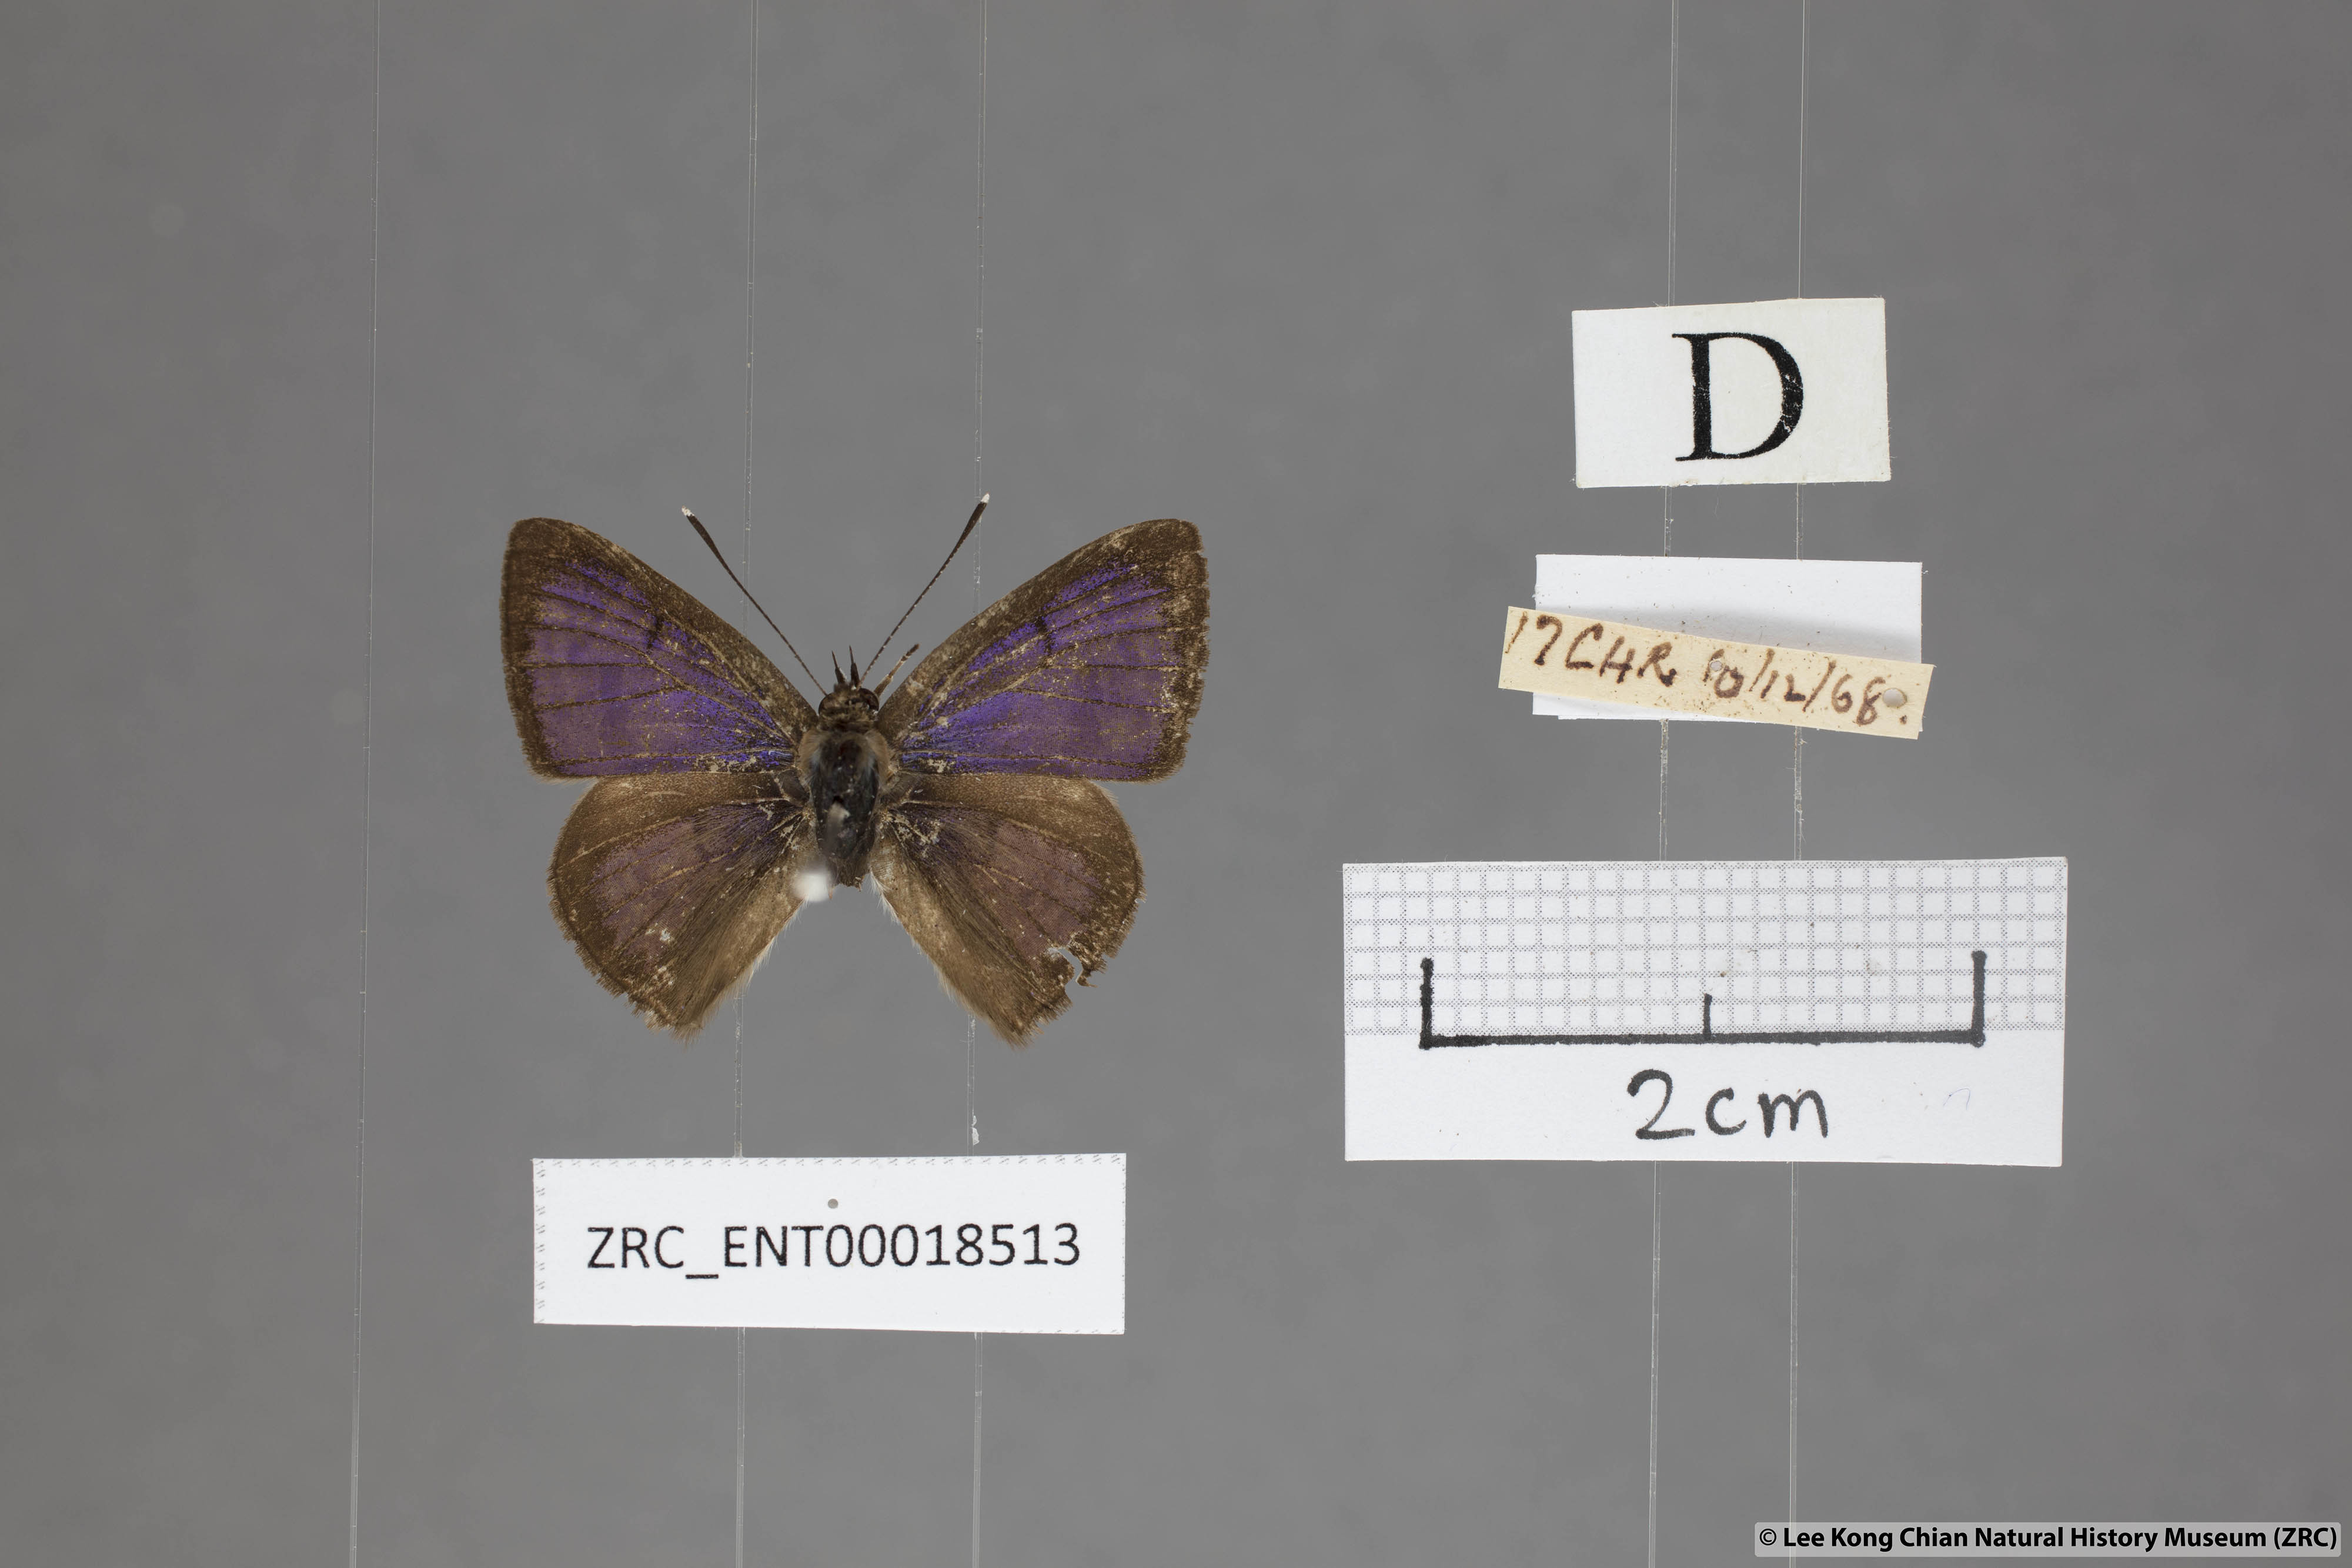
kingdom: Animalia
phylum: Arthropoda
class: Insecta
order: Lepidoptera
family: Lycaenidae
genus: Niphanda
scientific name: Niphanda cymbia
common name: Small pointed pierrot
